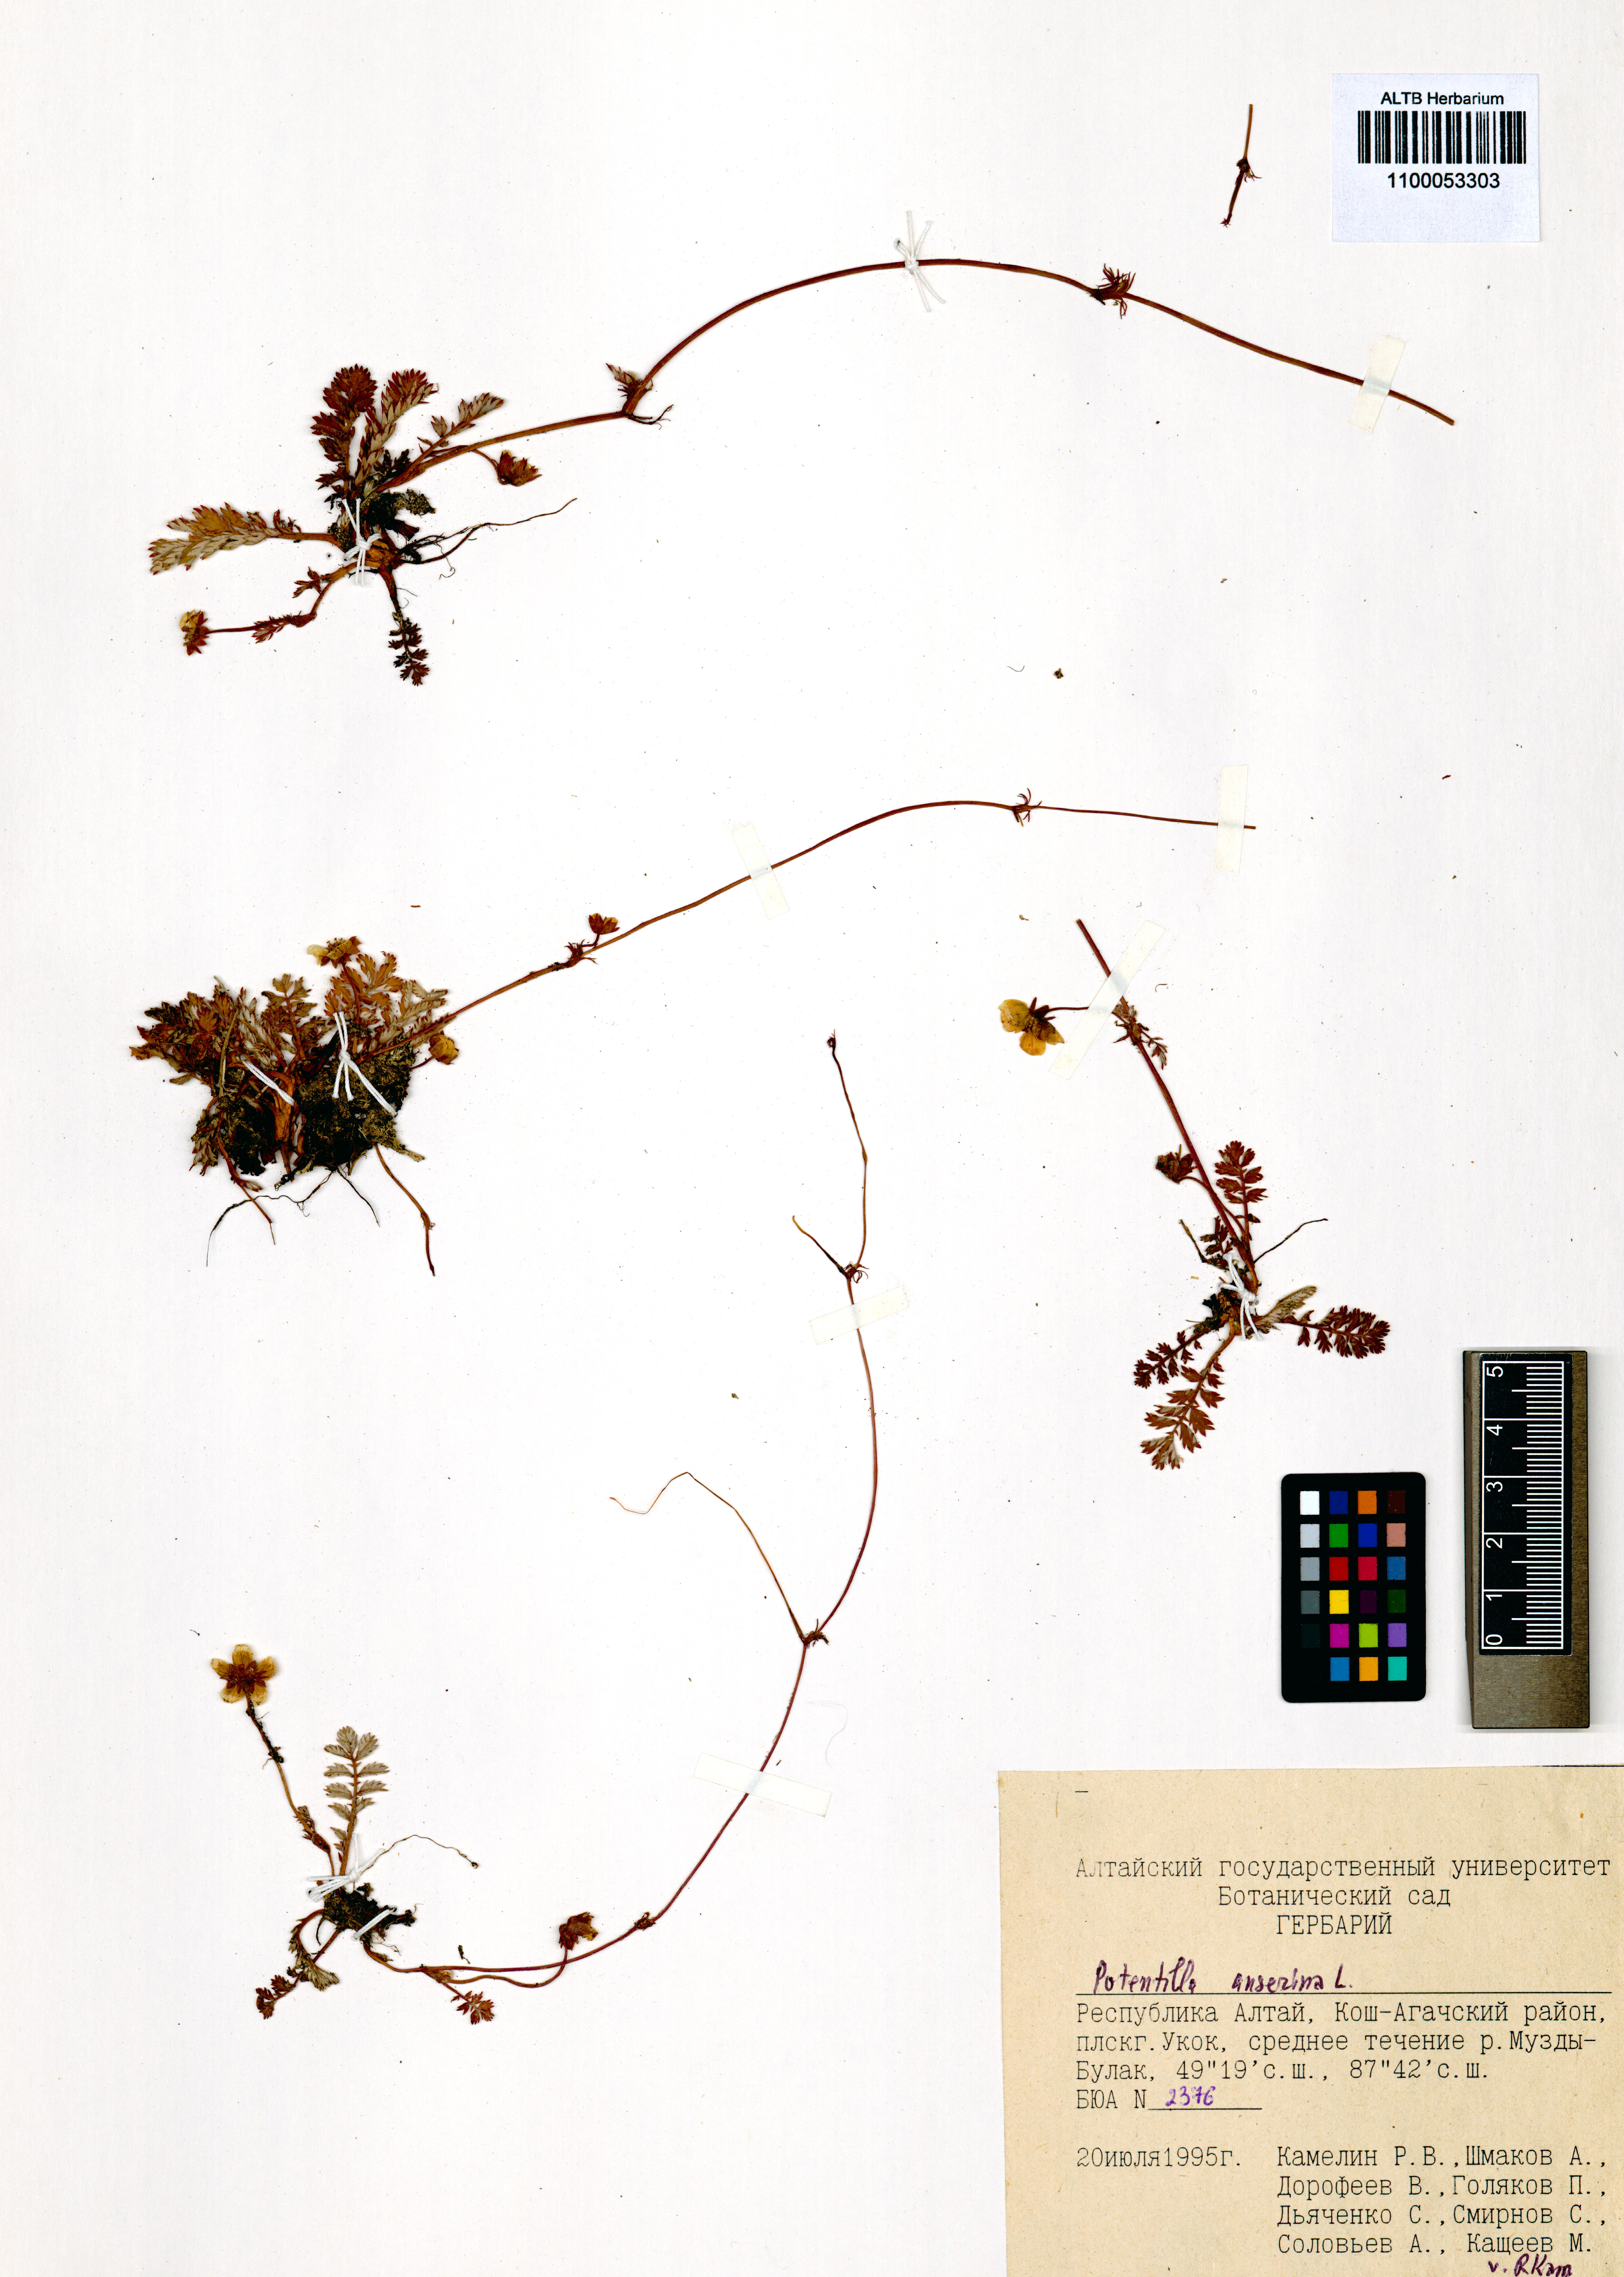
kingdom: Plantae
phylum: Tracheophyta
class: Magnoliopsida
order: Rosales
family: Rosaceae
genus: Argentina
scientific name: Argentina anserina
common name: Common silverweed
